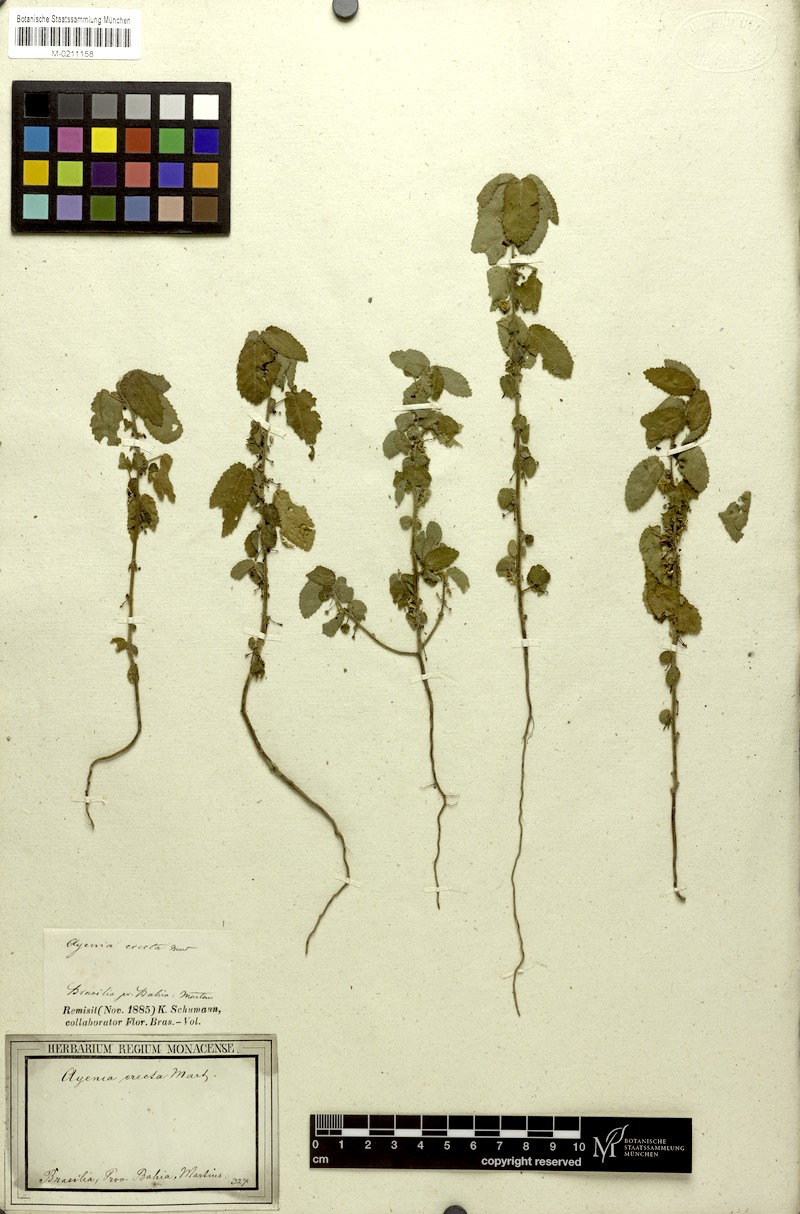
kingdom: Plantae
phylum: Tracheophyta
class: Magnoliopsida
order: Malvales
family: Malvaceae
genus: Ayenia
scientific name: Ayenia erecta
